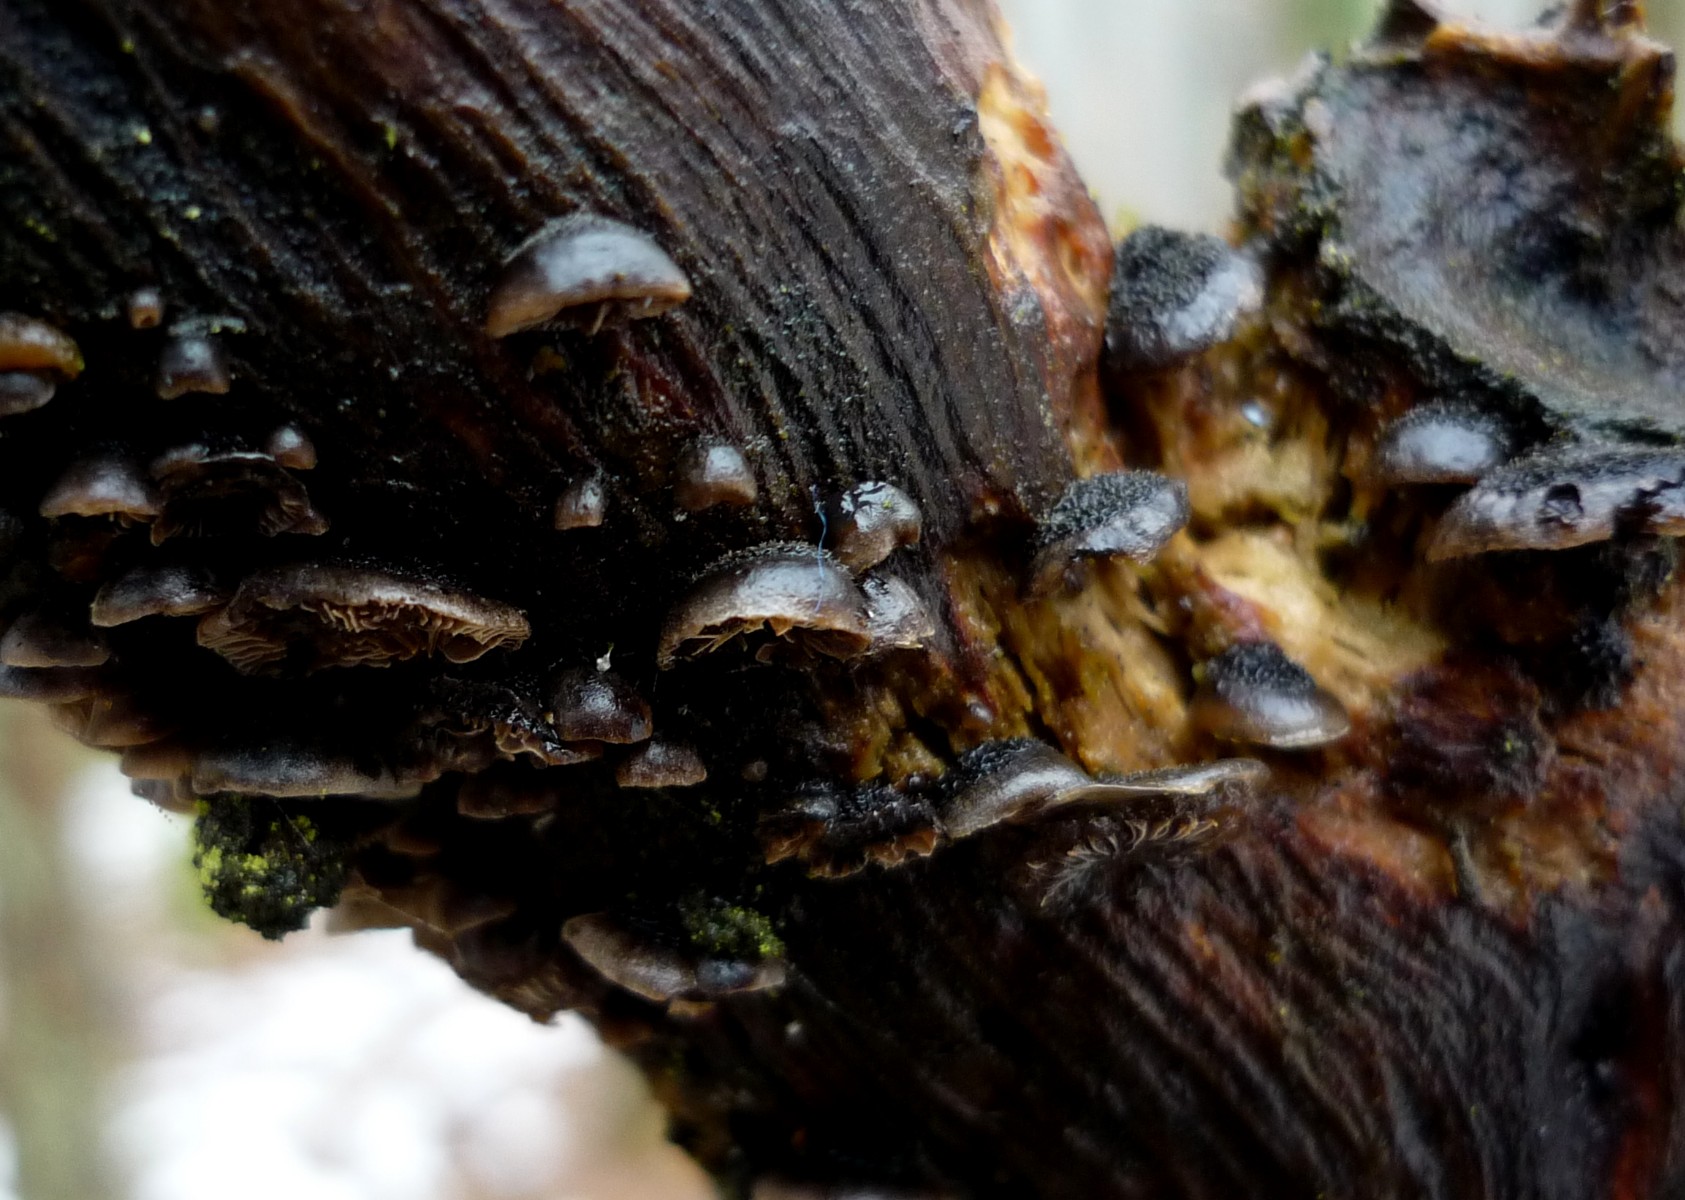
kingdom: Fungi
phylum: Basidiomycota
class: Agaricomycetes
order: Agaricales
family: Pleurotaceae
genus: Resupinatus
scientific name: Resupinatus trichotis
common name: mørkfiltet barkhat
